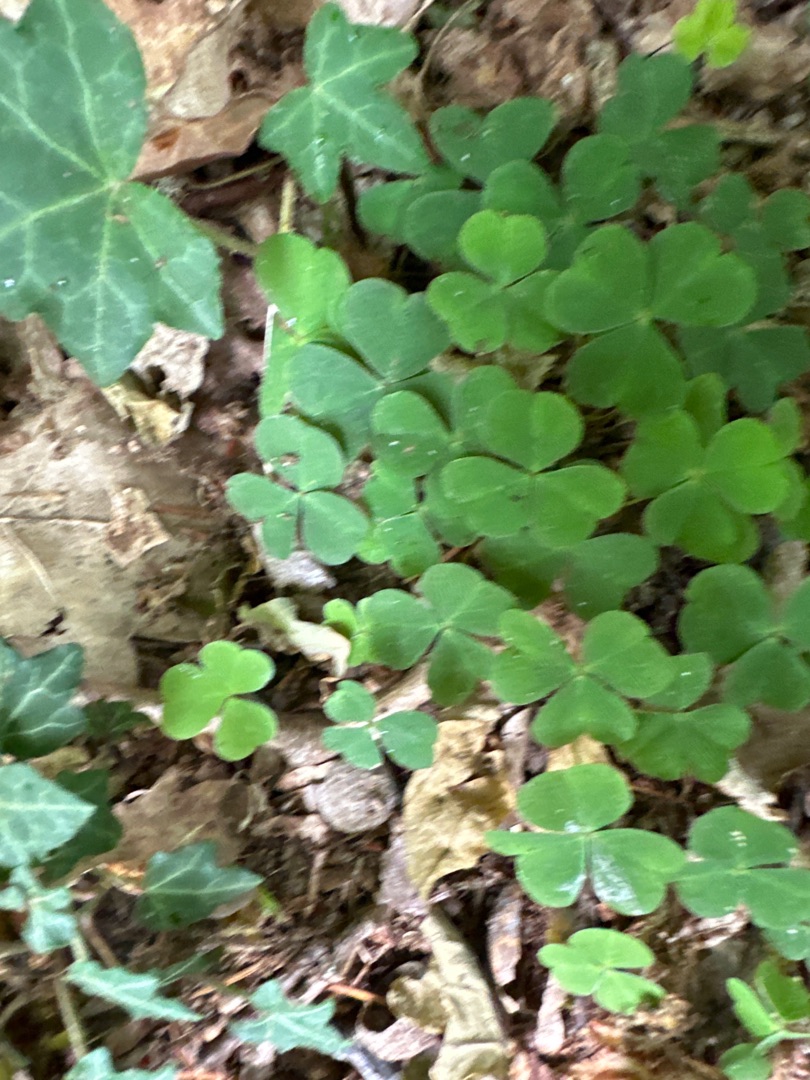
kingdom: Plantae
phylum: Tracheophyta
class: Magnoliopsida
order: Oxalidales
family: Oxalidaceae
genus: Oxalis
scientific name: Oxalis acetosella
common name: Skovsyre
